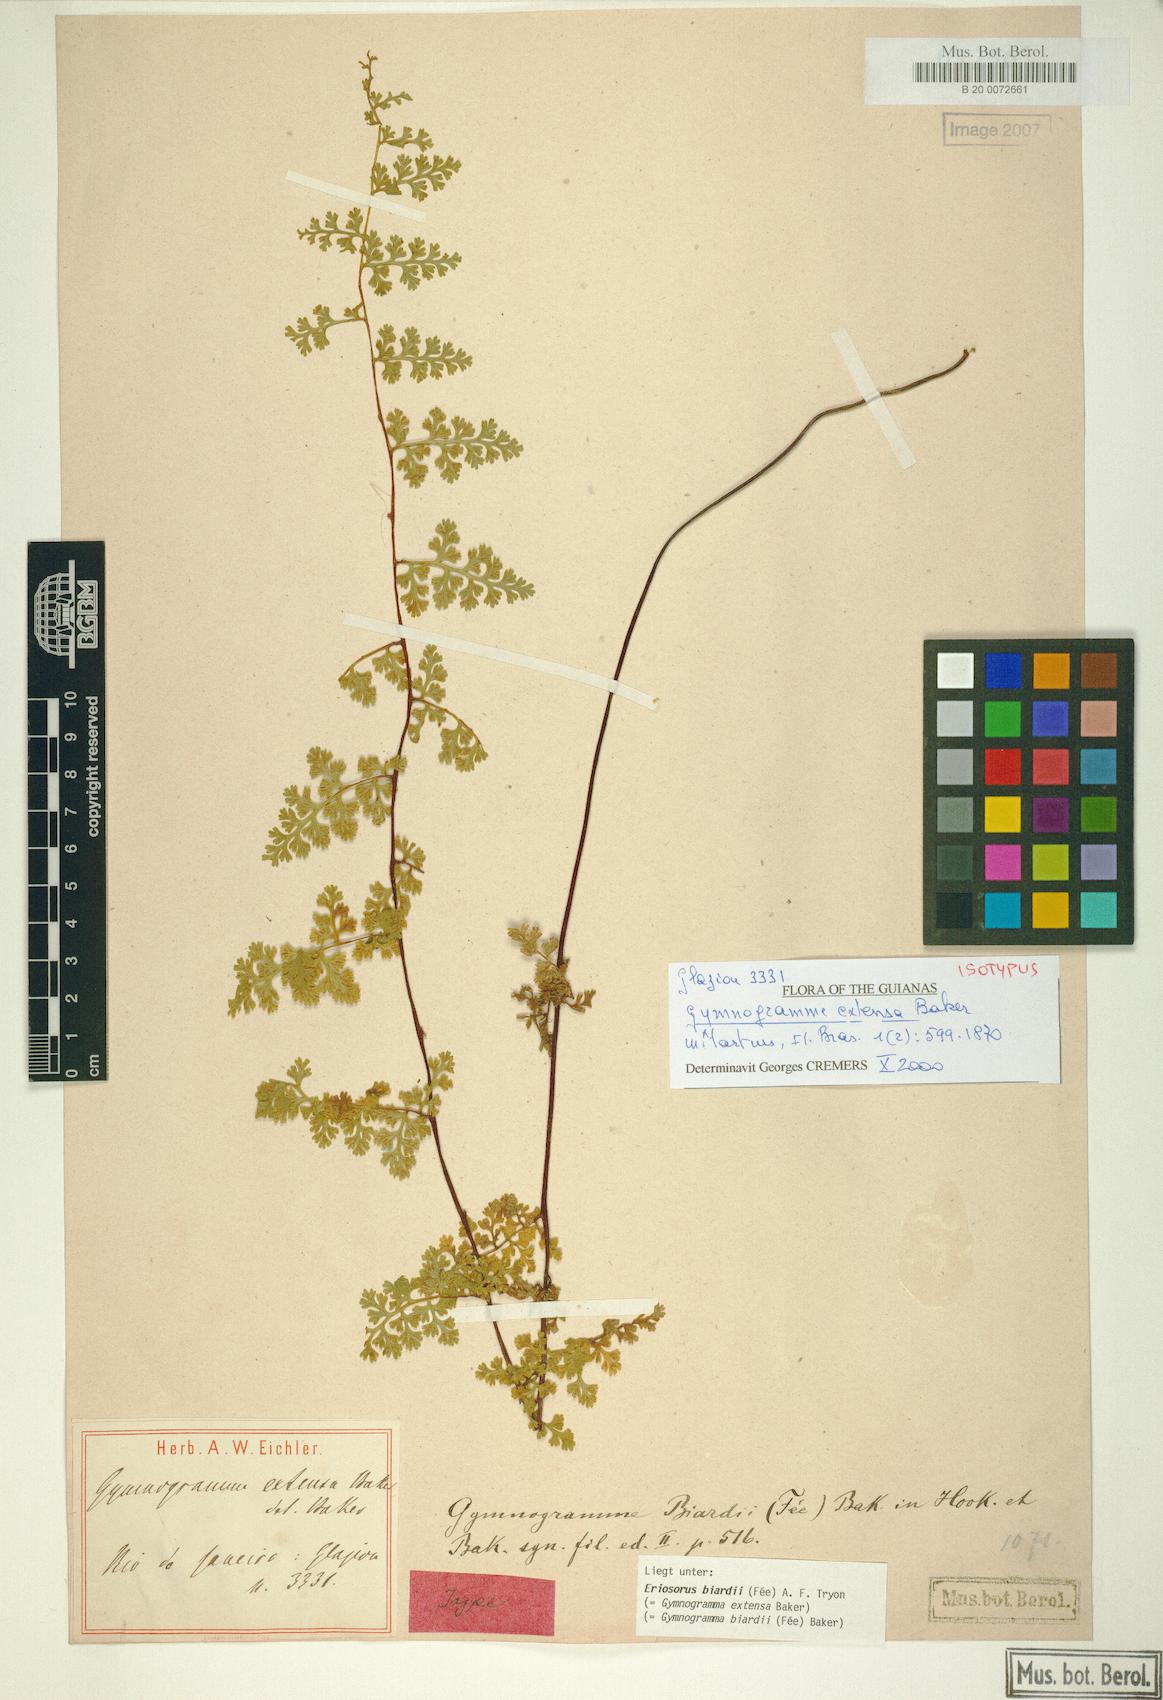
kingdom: Plantae
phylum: Tracheophyta
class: Polypodiopsida
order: Polypodiales
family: Pteridaceae
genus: Jamesonia
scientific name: Jamesonia biardii
